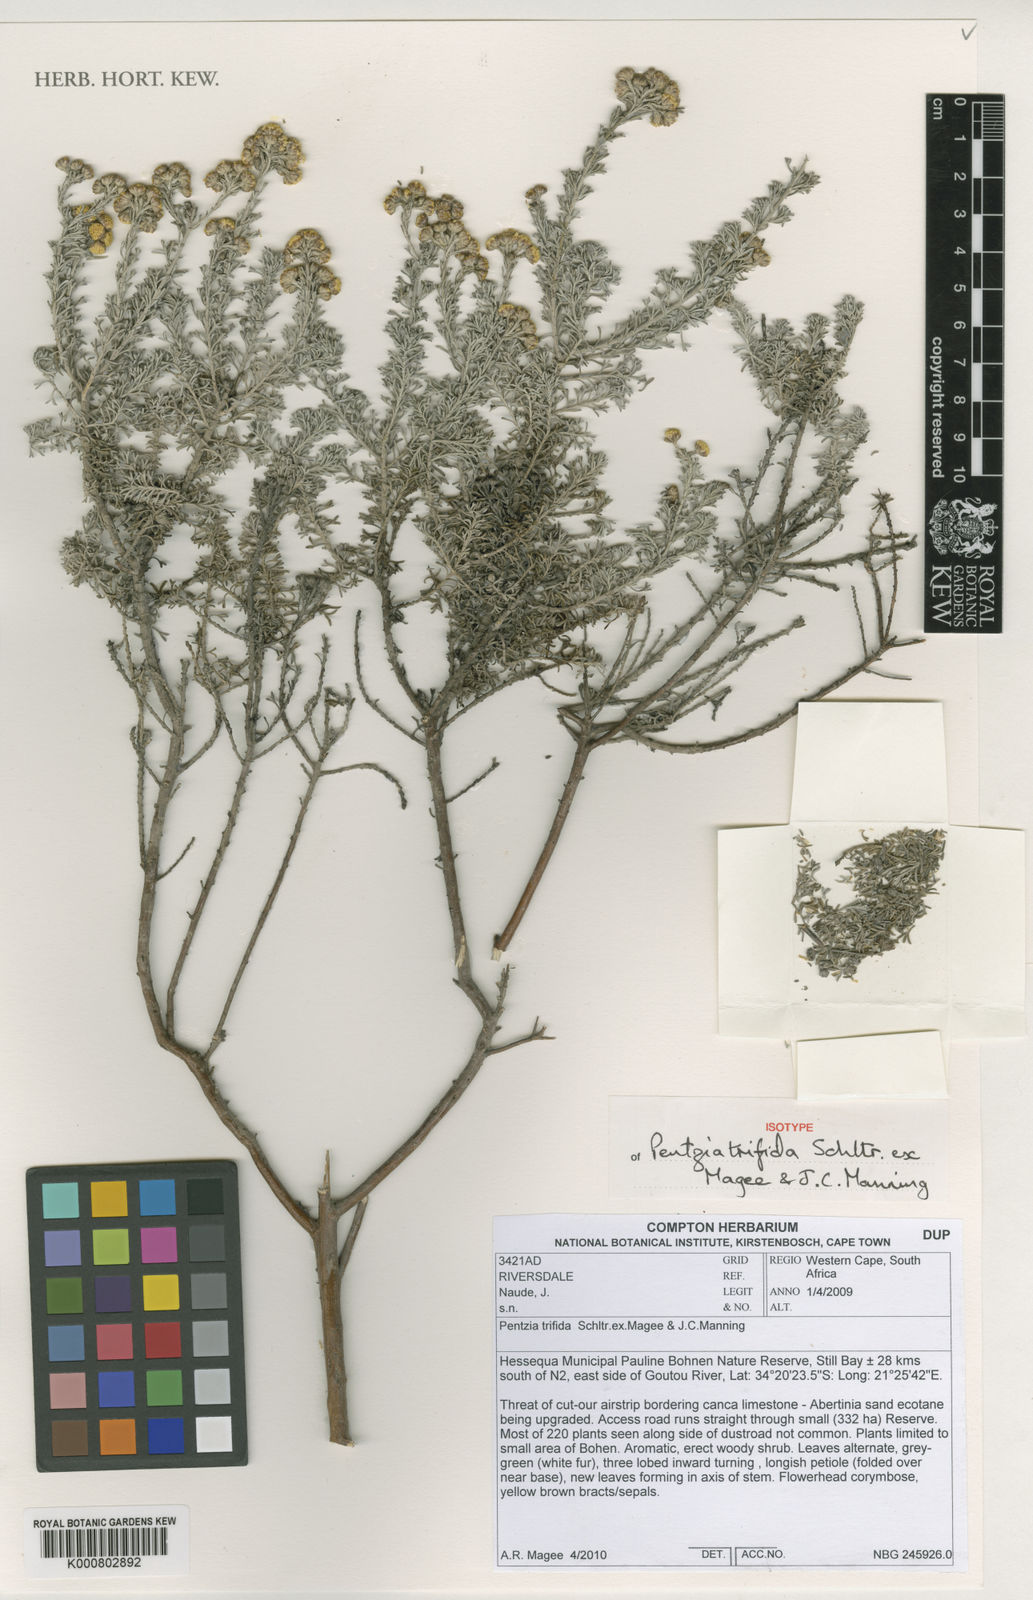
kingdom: Plantae
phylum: Tracheophyta
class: Magnoliopsida
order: Asterales
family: Asteraceae
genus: Pentzia
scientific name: Pentzia trifida
